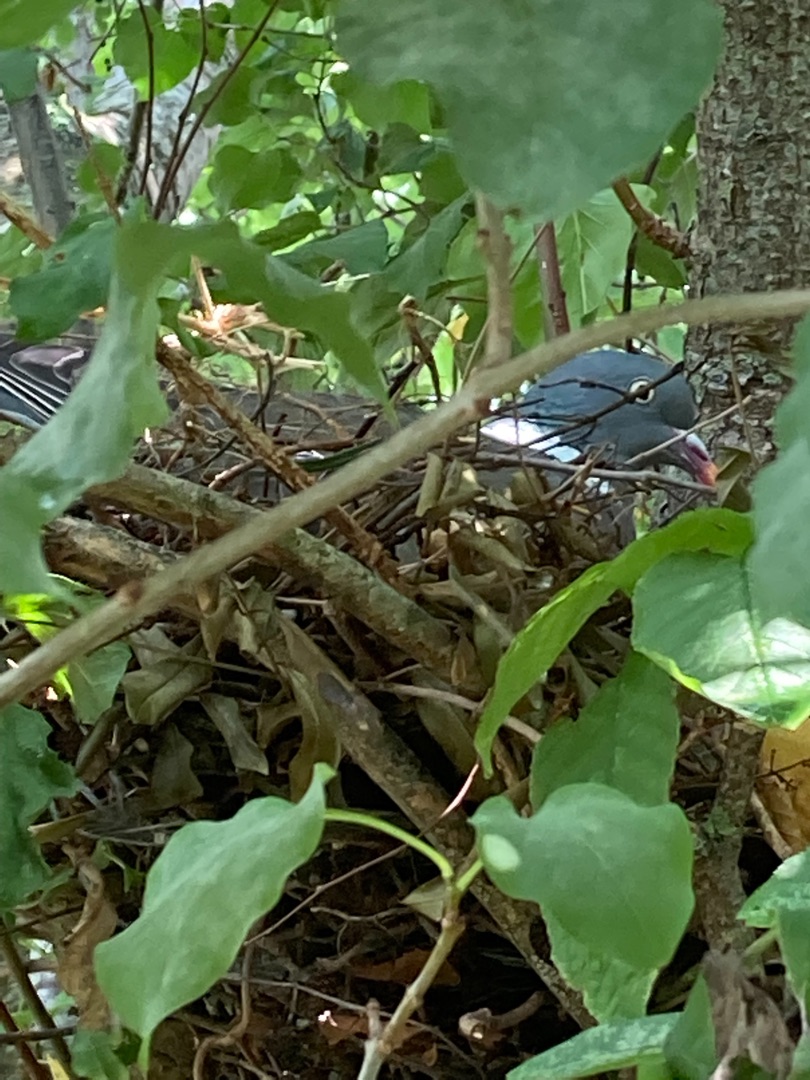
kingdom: Animalia
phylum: Chordata
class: Aves
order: Columbiformes
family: Columbidae
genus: Columba
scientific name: Columba palumbus
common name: Ringdue
